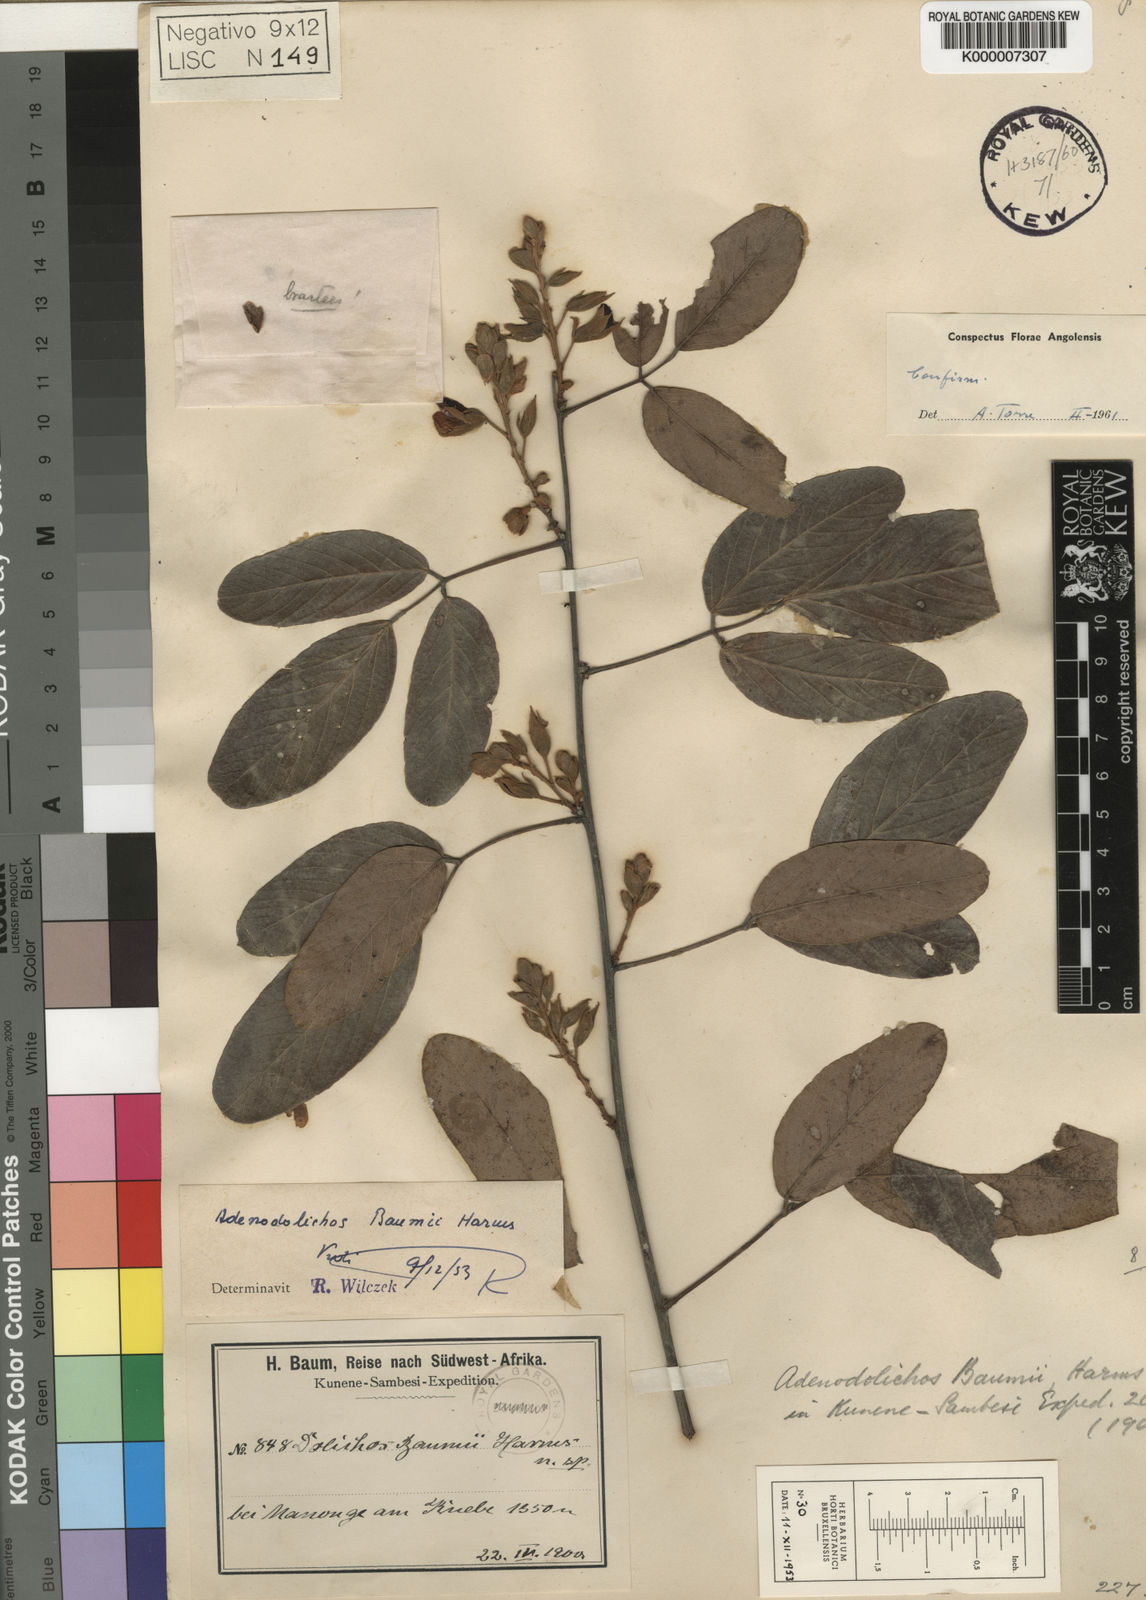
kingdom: Plantae
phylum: Tracheophyta
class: Magnoliopsida
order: Fabales
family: Fabaceae
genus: Adenodolichos
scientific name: Adenodolichos baumii
